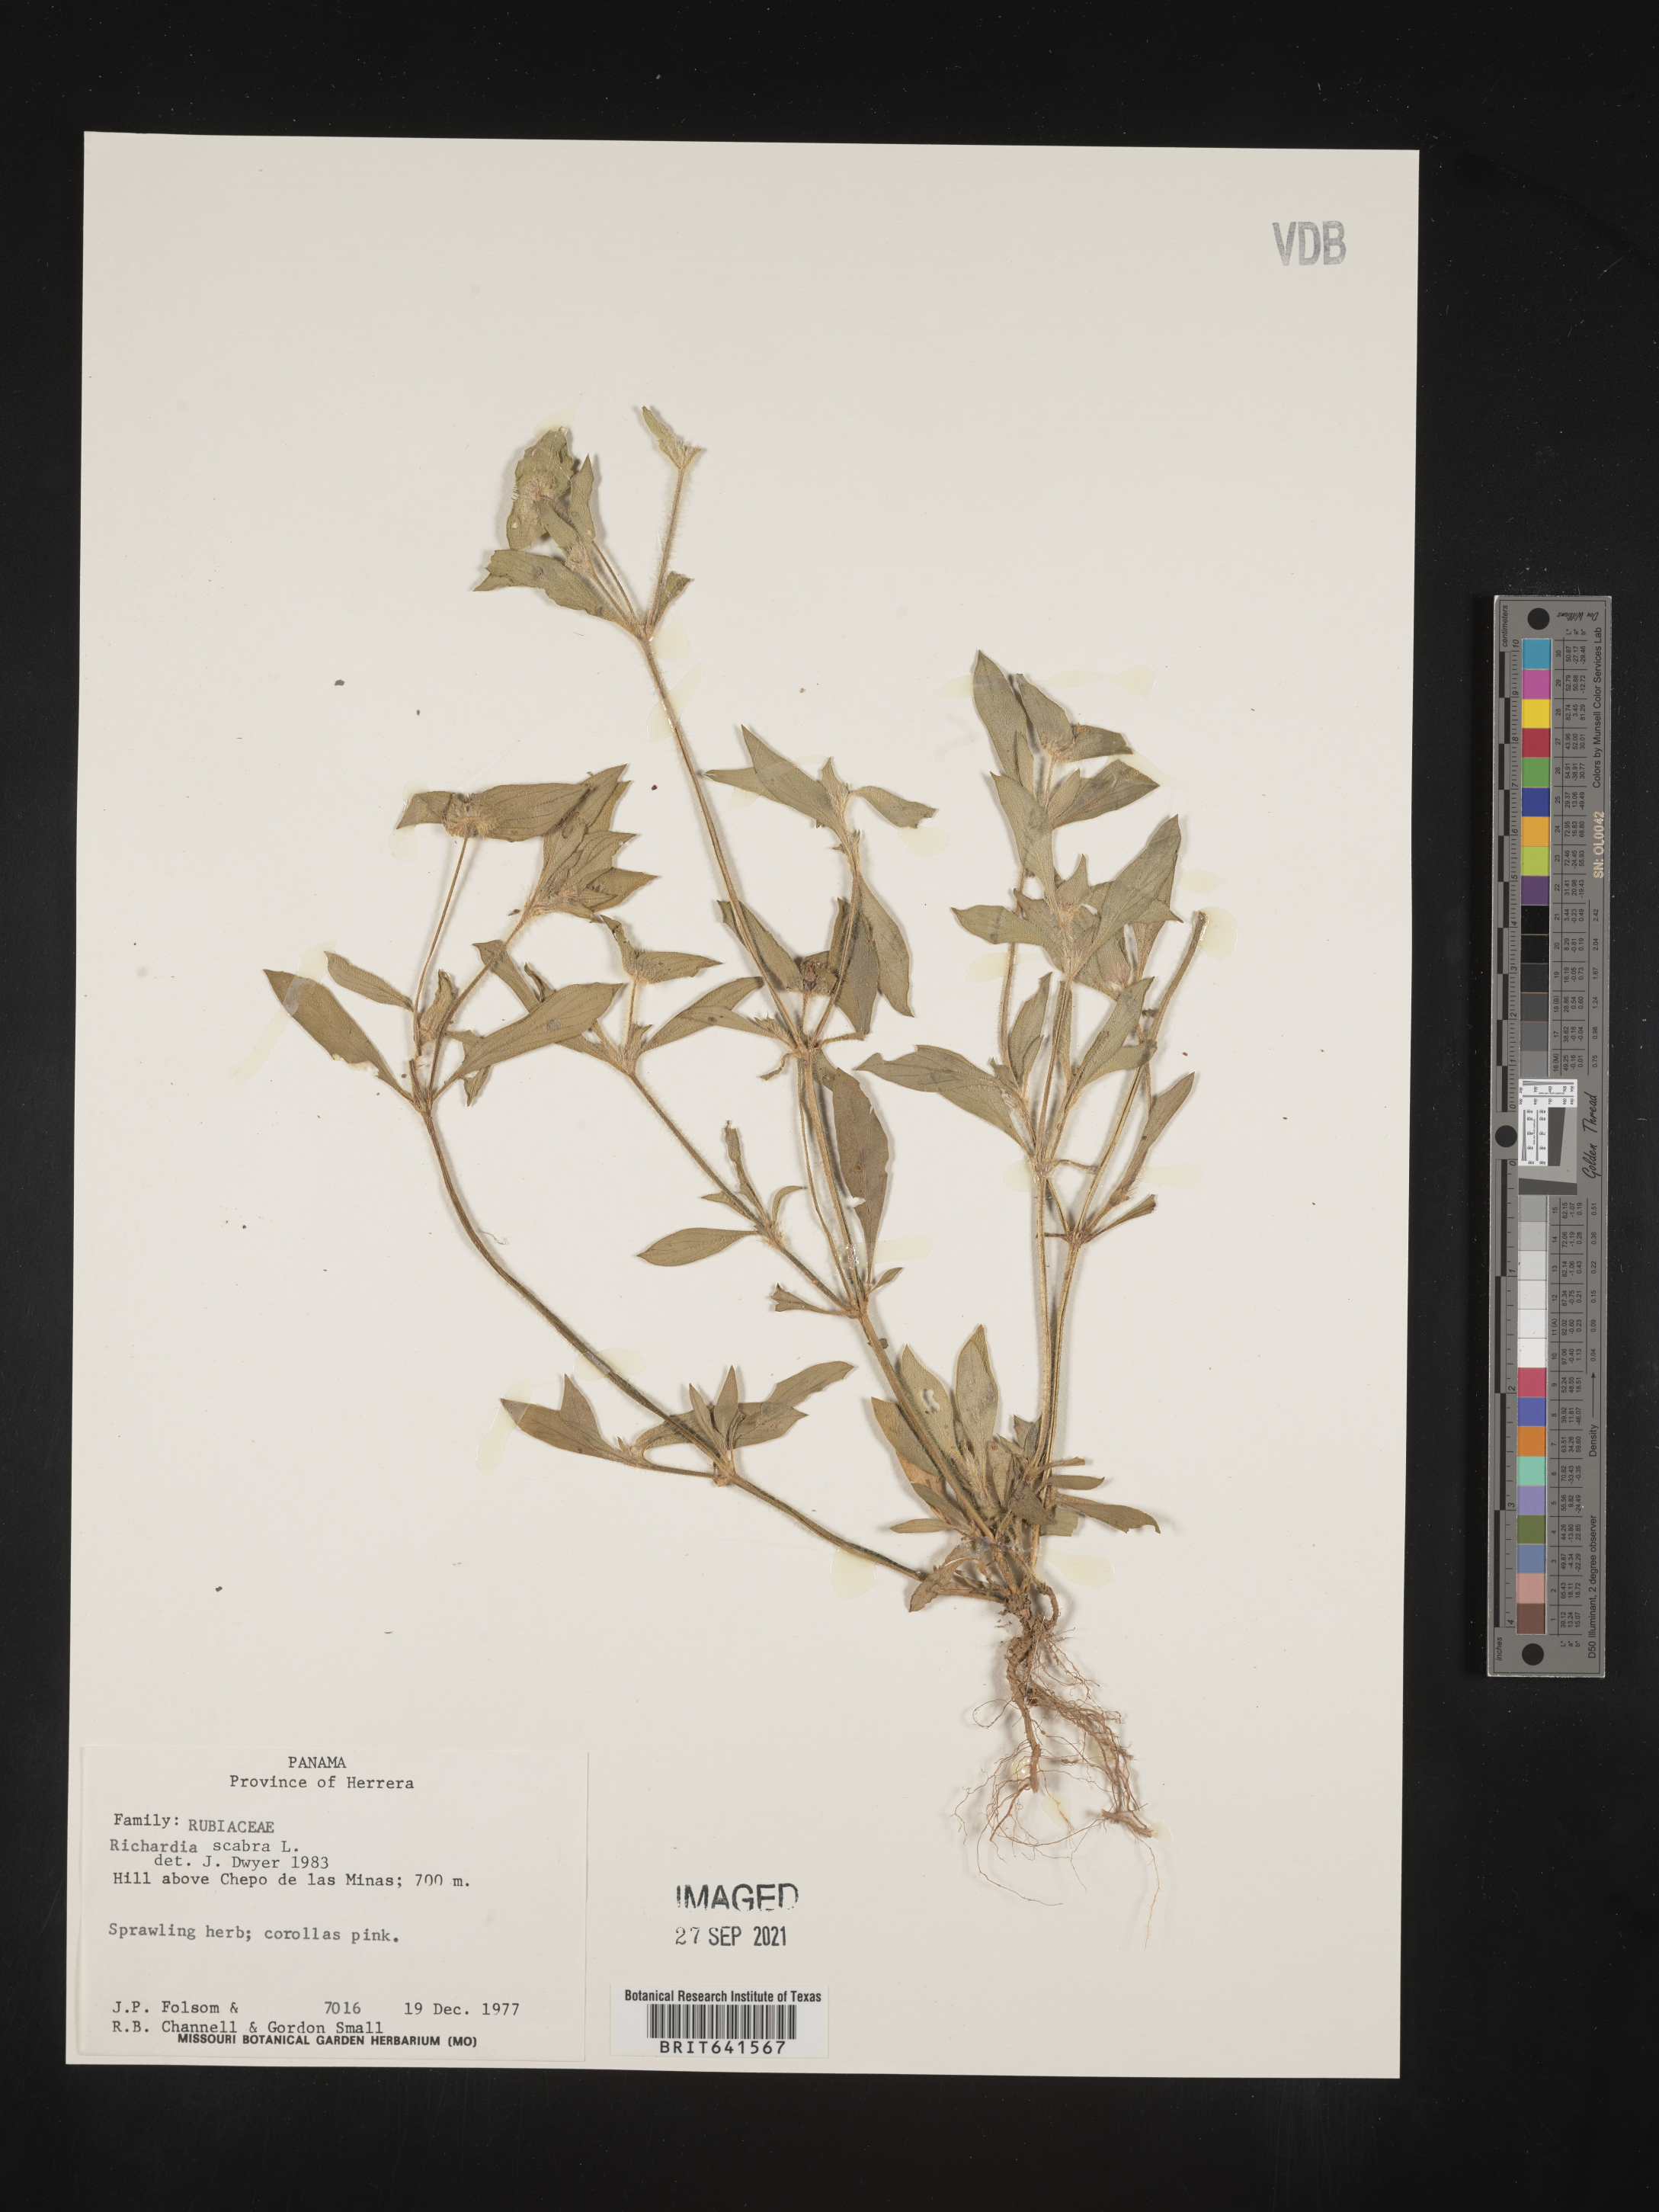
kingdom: Plantae
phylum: Tracheophyta
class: Magnoliopsida
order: Gentianales
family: Rubiaceae
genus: Richardia
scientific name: Richardia
